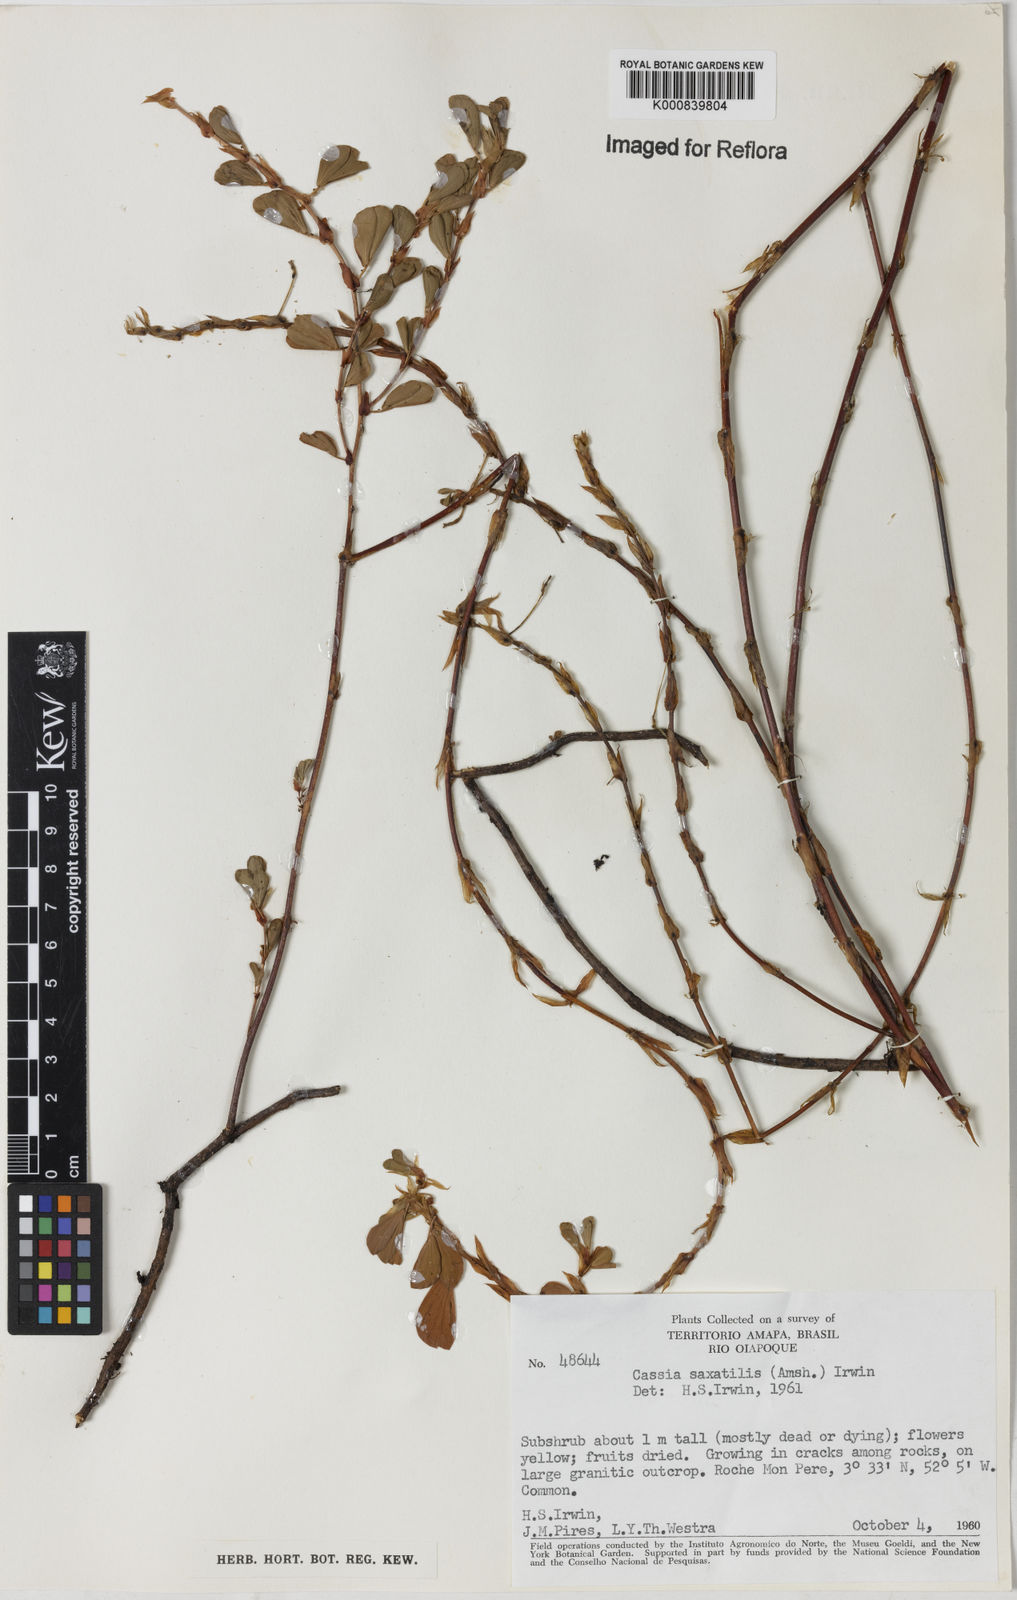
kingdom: Plantae
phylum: Tracheophyta
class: Magnoliopsida
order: Fabales
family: Fabaceae
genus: Chamaecrista
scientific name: Chamaecrista desvauxii
